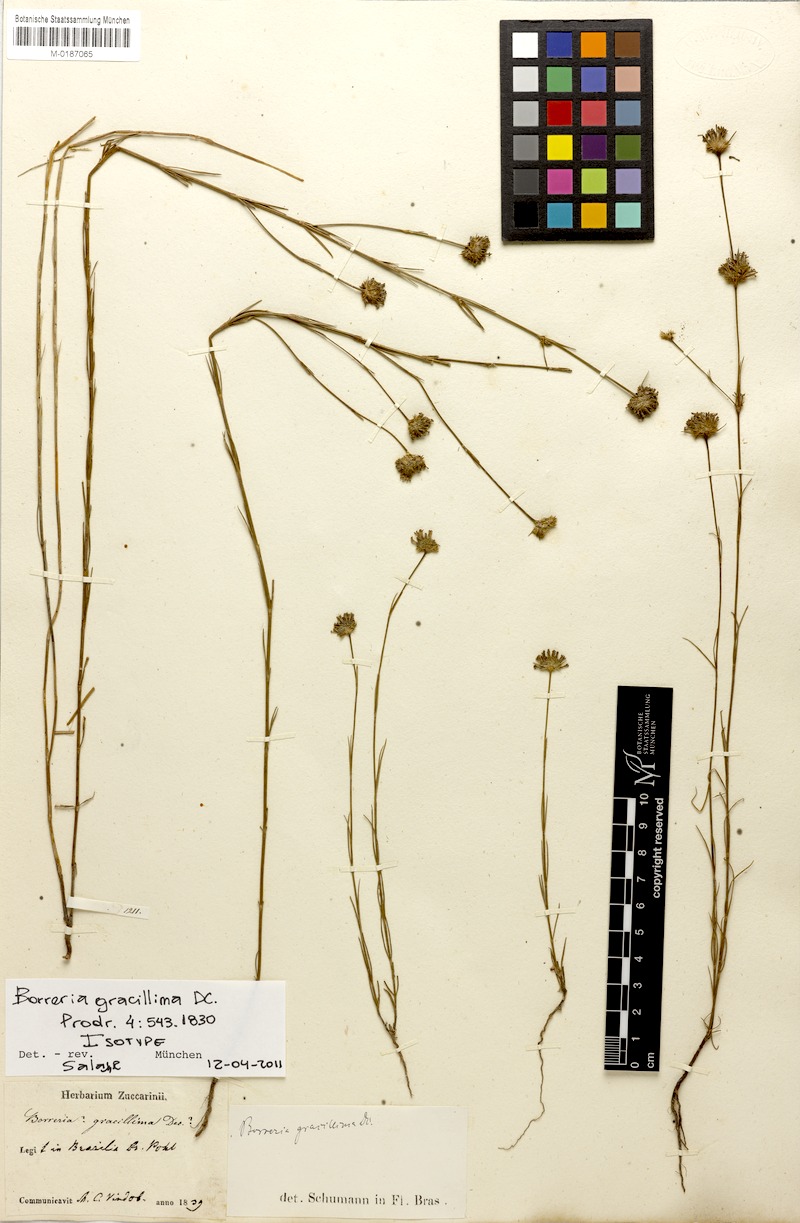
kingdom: Plantae
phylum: Tracheophyta
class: Magnoliopsida
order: Gentianales
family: Rubiaceae
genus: Spermacoce
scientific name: Spermacoce gracillima
